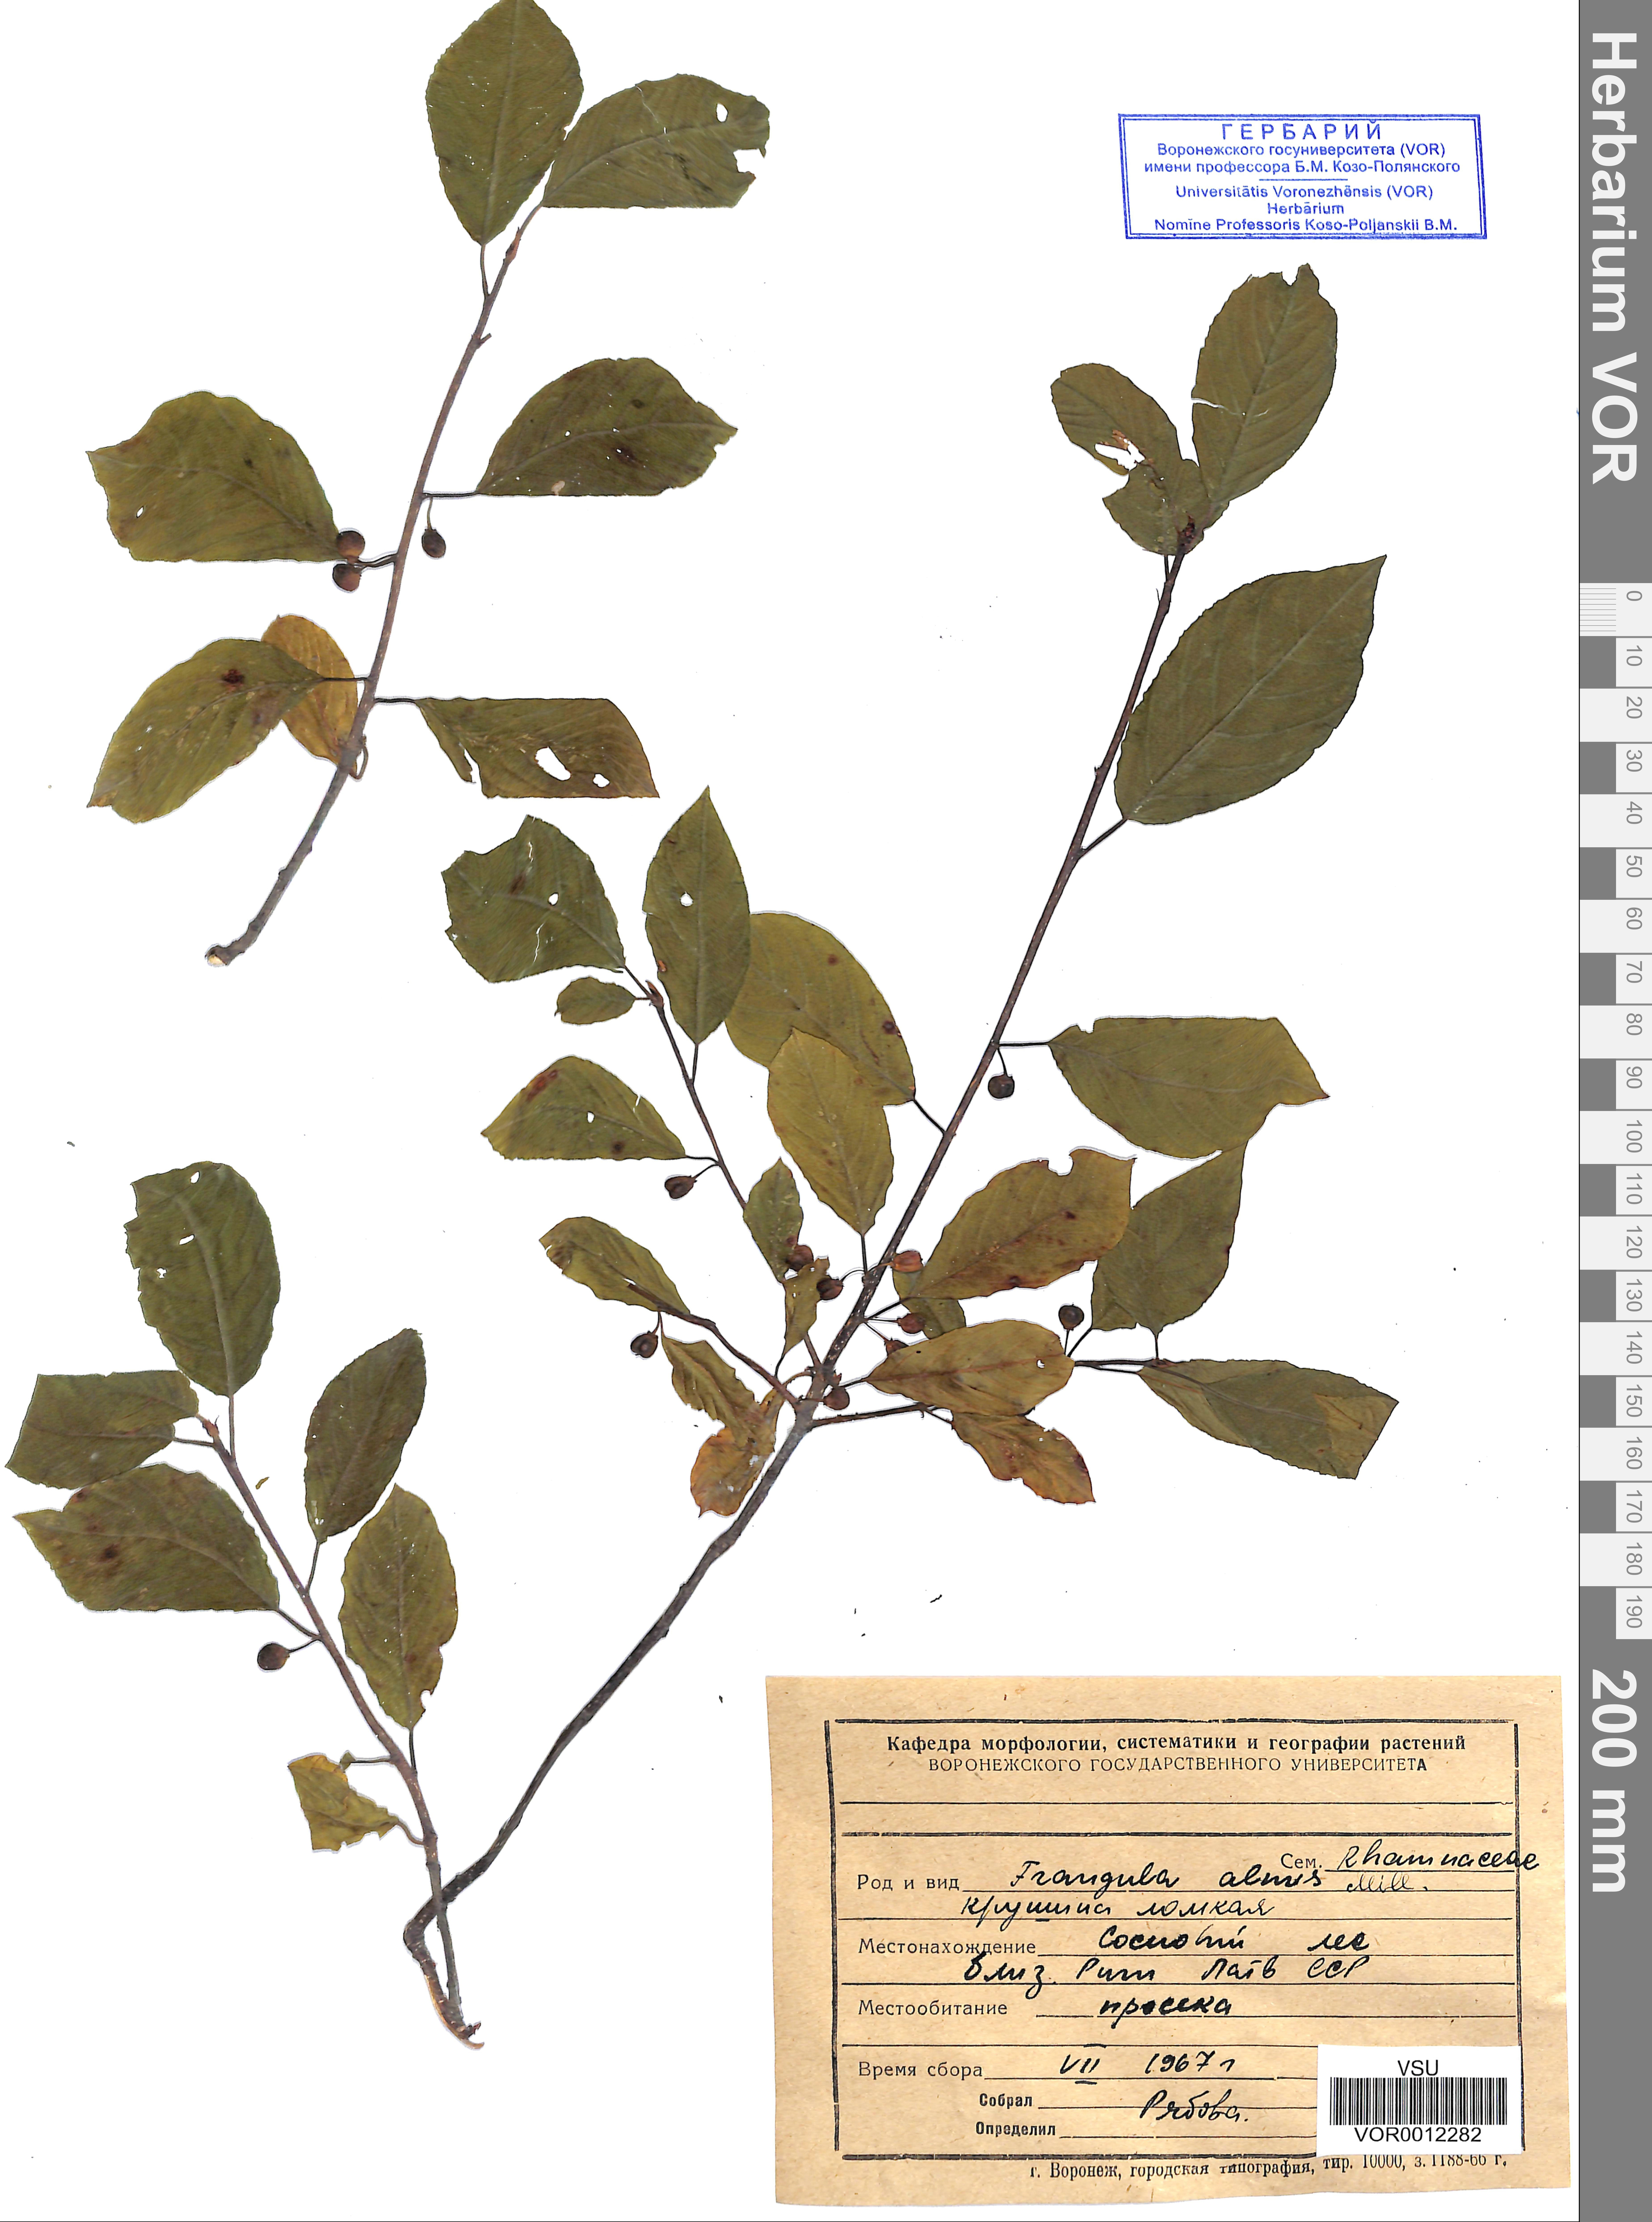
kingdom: Plantae
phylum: Tracheophyta
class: Magnoliopsida
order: Rosales
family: Rhamnaceae
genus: Frangula
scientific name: Frangula alnus
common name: Alder buckthorn
